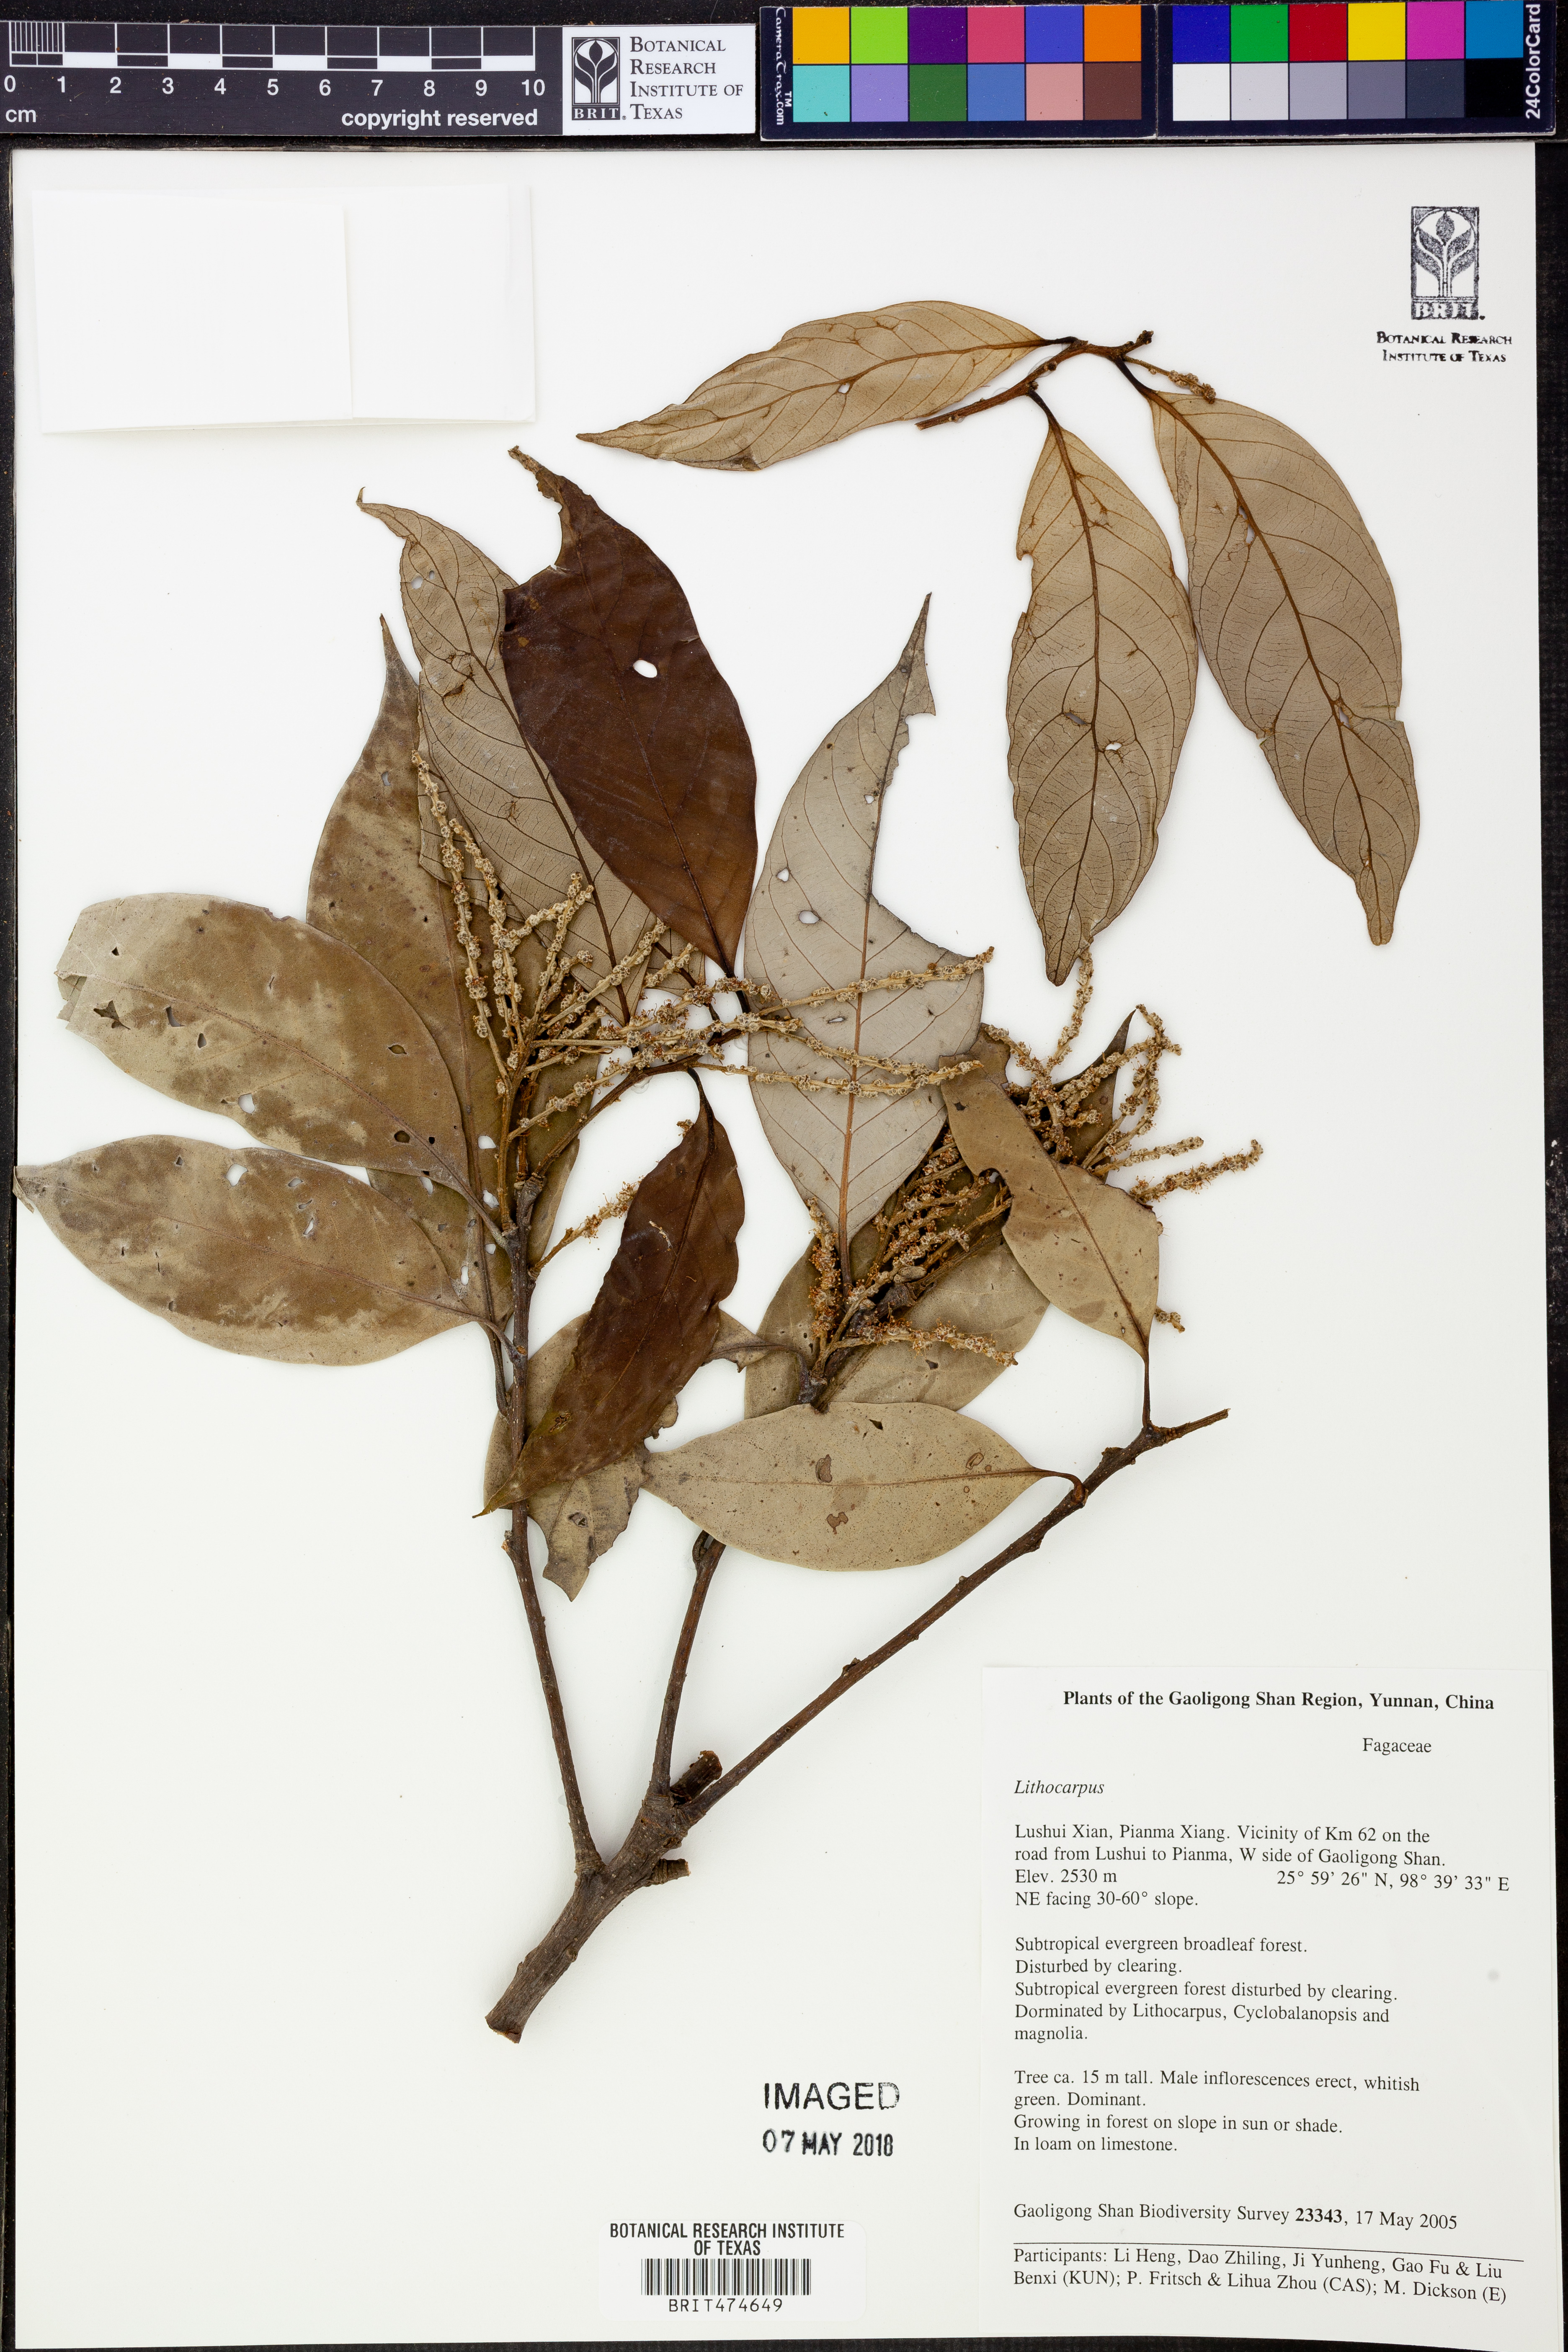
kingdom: Plantae
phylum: Tracheophyta
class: Magnoliopsida
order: Fagales
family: Fagaceae
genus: Lithocarpus
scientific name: Lithocarpus
